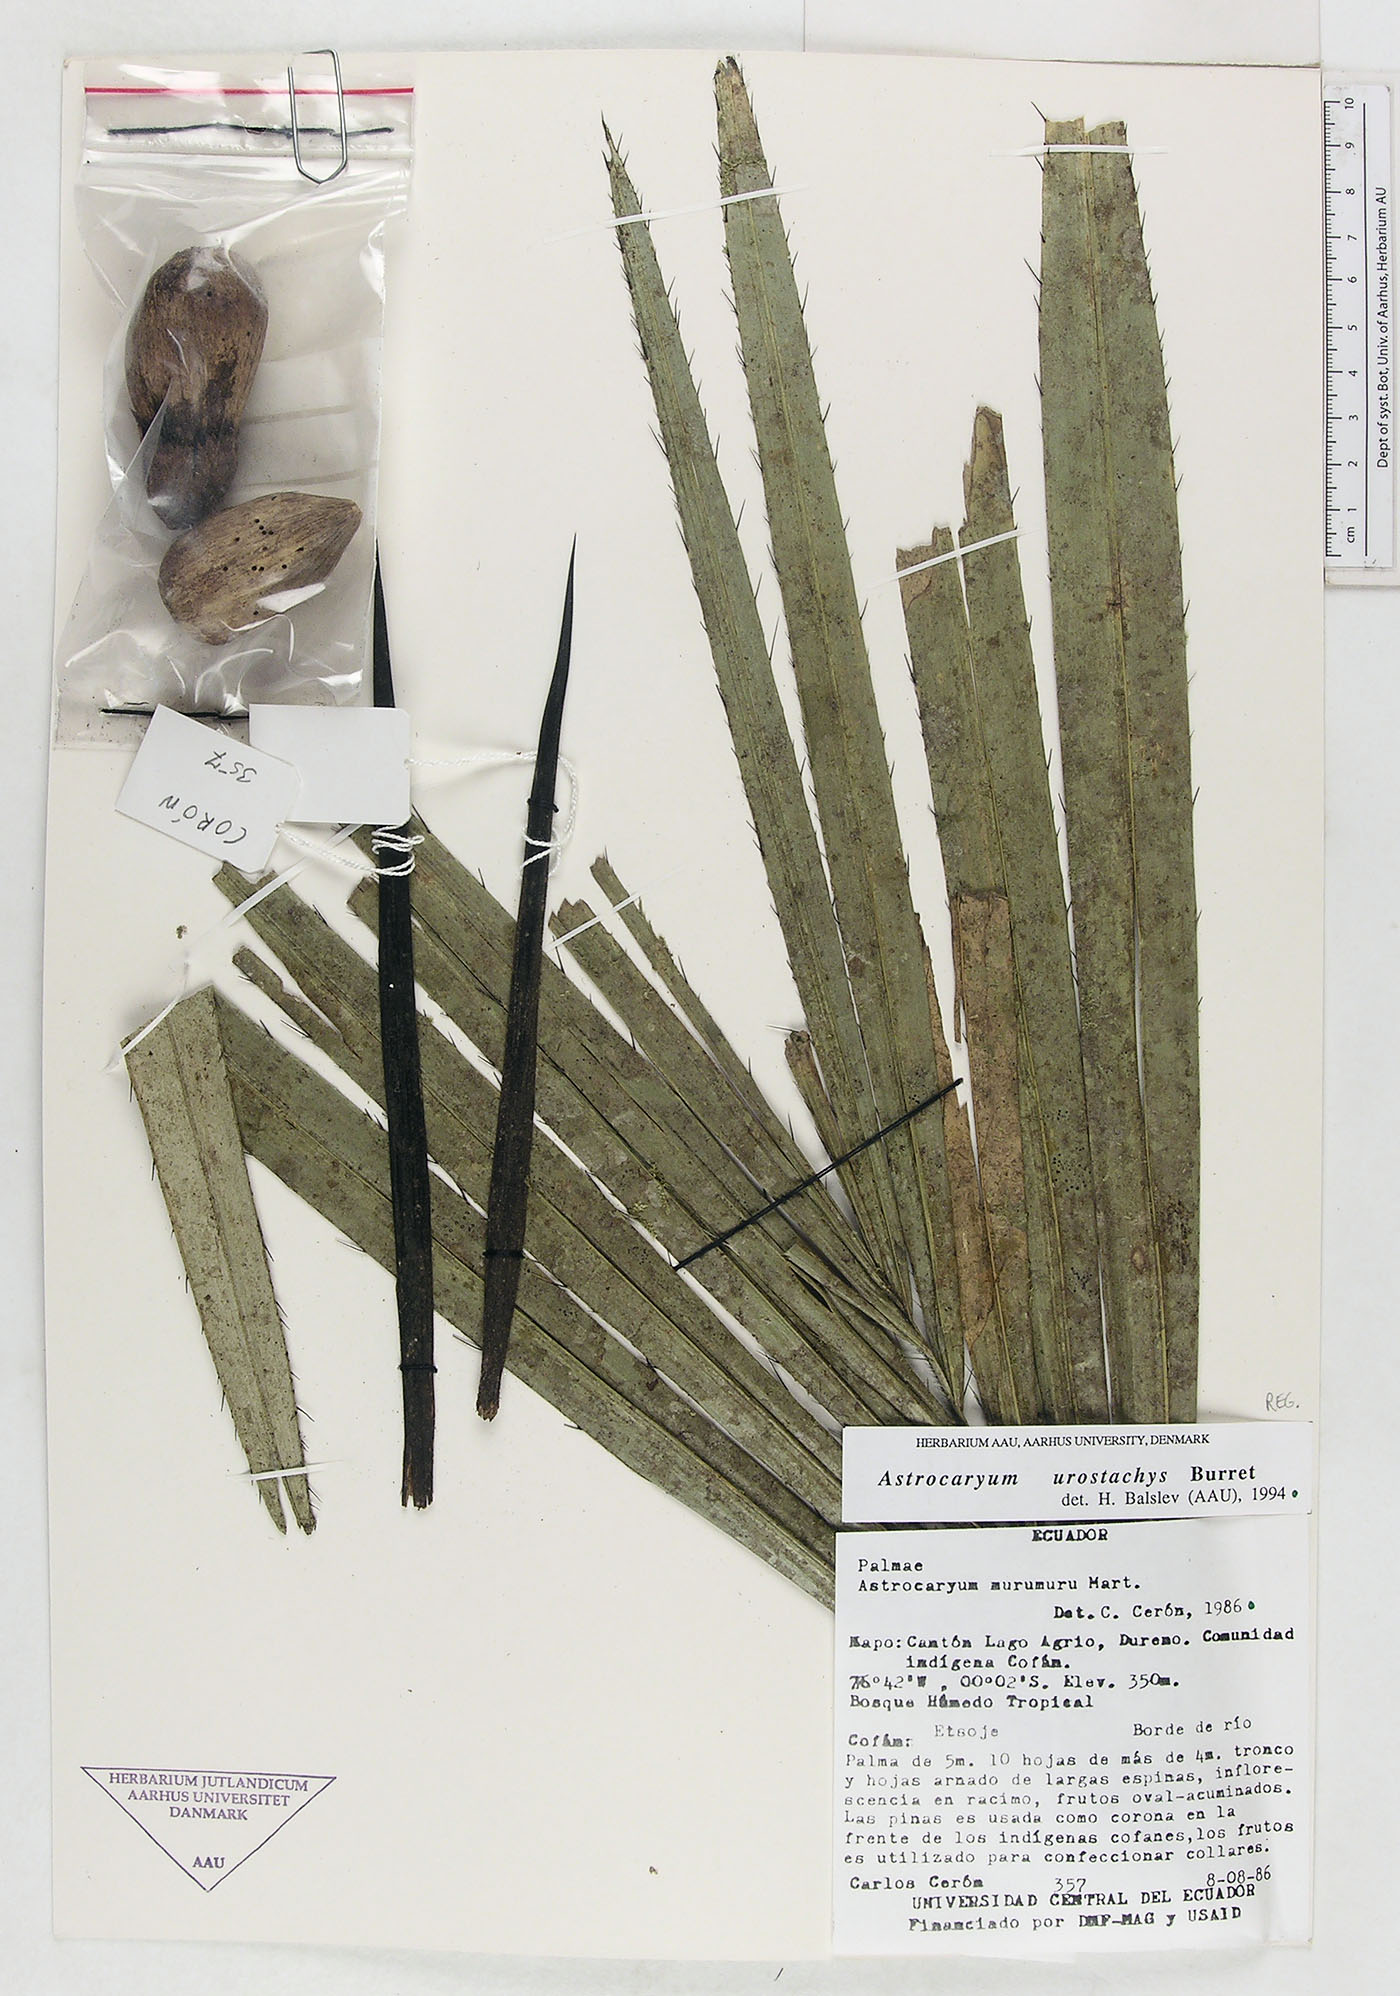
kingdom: Plantae
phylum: Tracheophyta
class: Liliopsida
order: Arecales
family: Arecaceae
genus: Astrocaryum
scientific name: Astrocaryum urostachys
